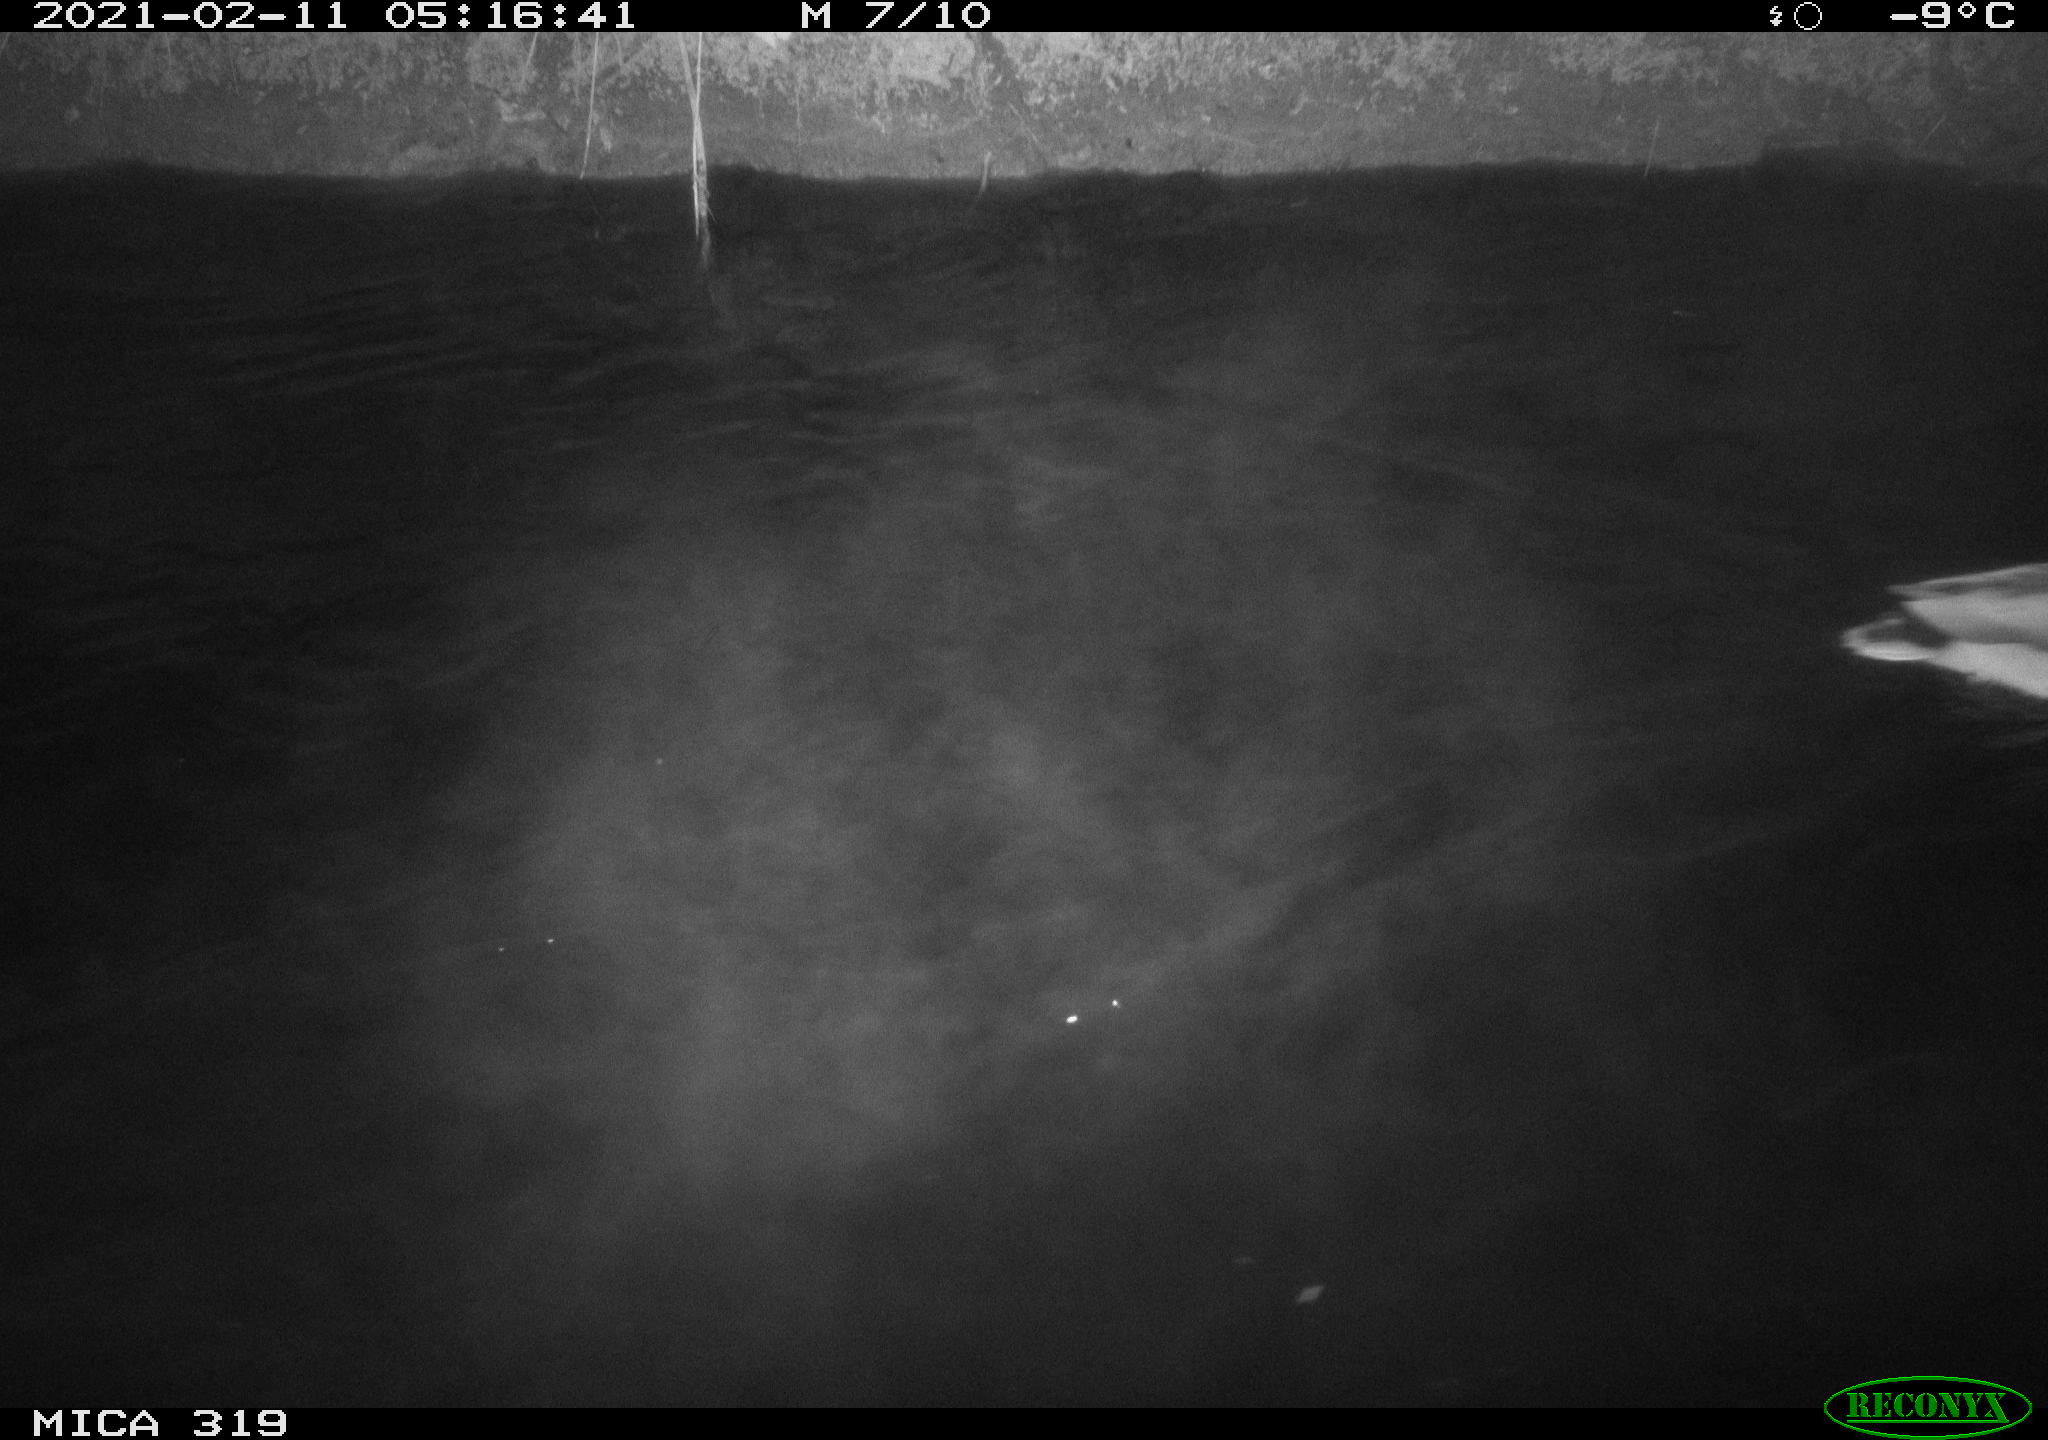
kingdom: Animalia
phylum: Chordata
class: Aves
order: Anseriformes
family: Anatidae
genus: Anas
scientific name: Anas platyrhynchos
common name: Mallard
